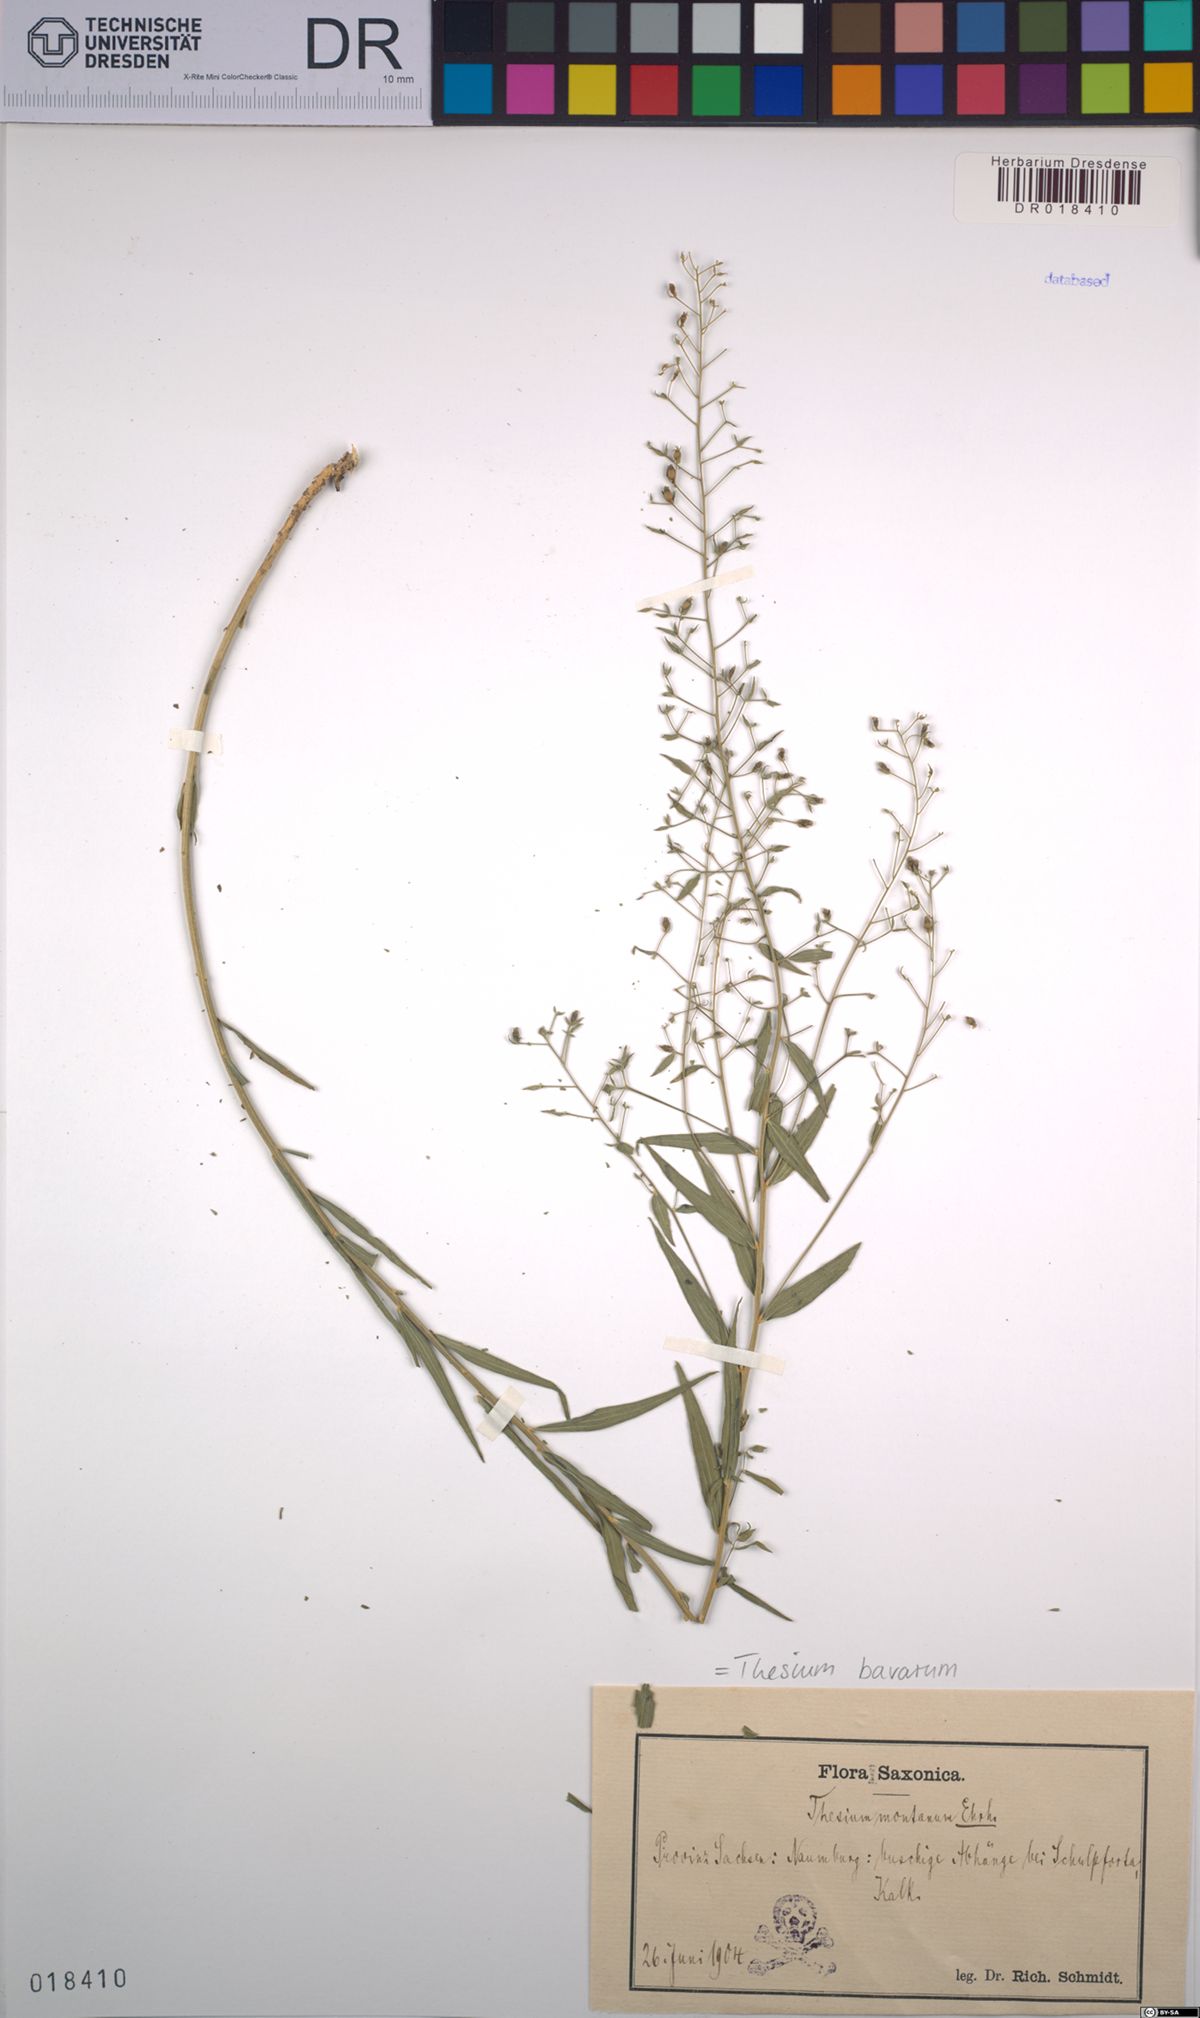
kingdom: Plantae
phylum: Tracheophyta
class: Magnoliopsida
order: Santalales
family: Thesiaceae
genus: Thesium
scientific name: Thesium bavarum
